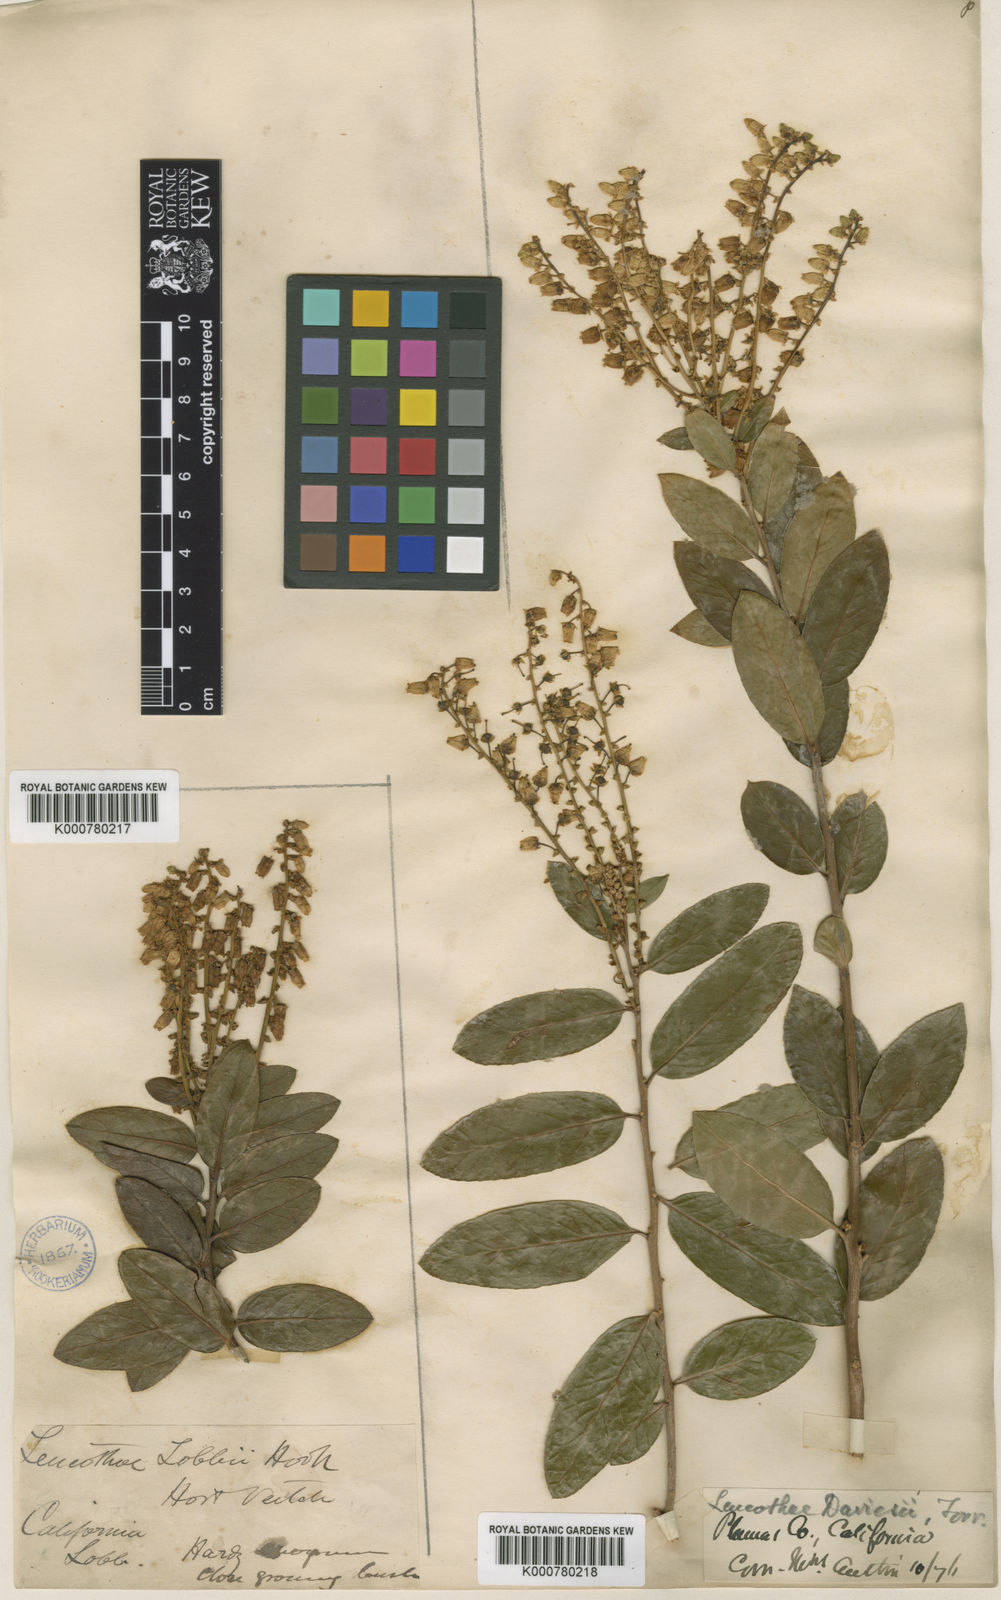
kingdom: Plantae
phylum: Tracheophyta
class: Magnoliopsida
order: Ericales
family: Ericaceae
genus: Leucothoe
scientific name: Leucothoe
